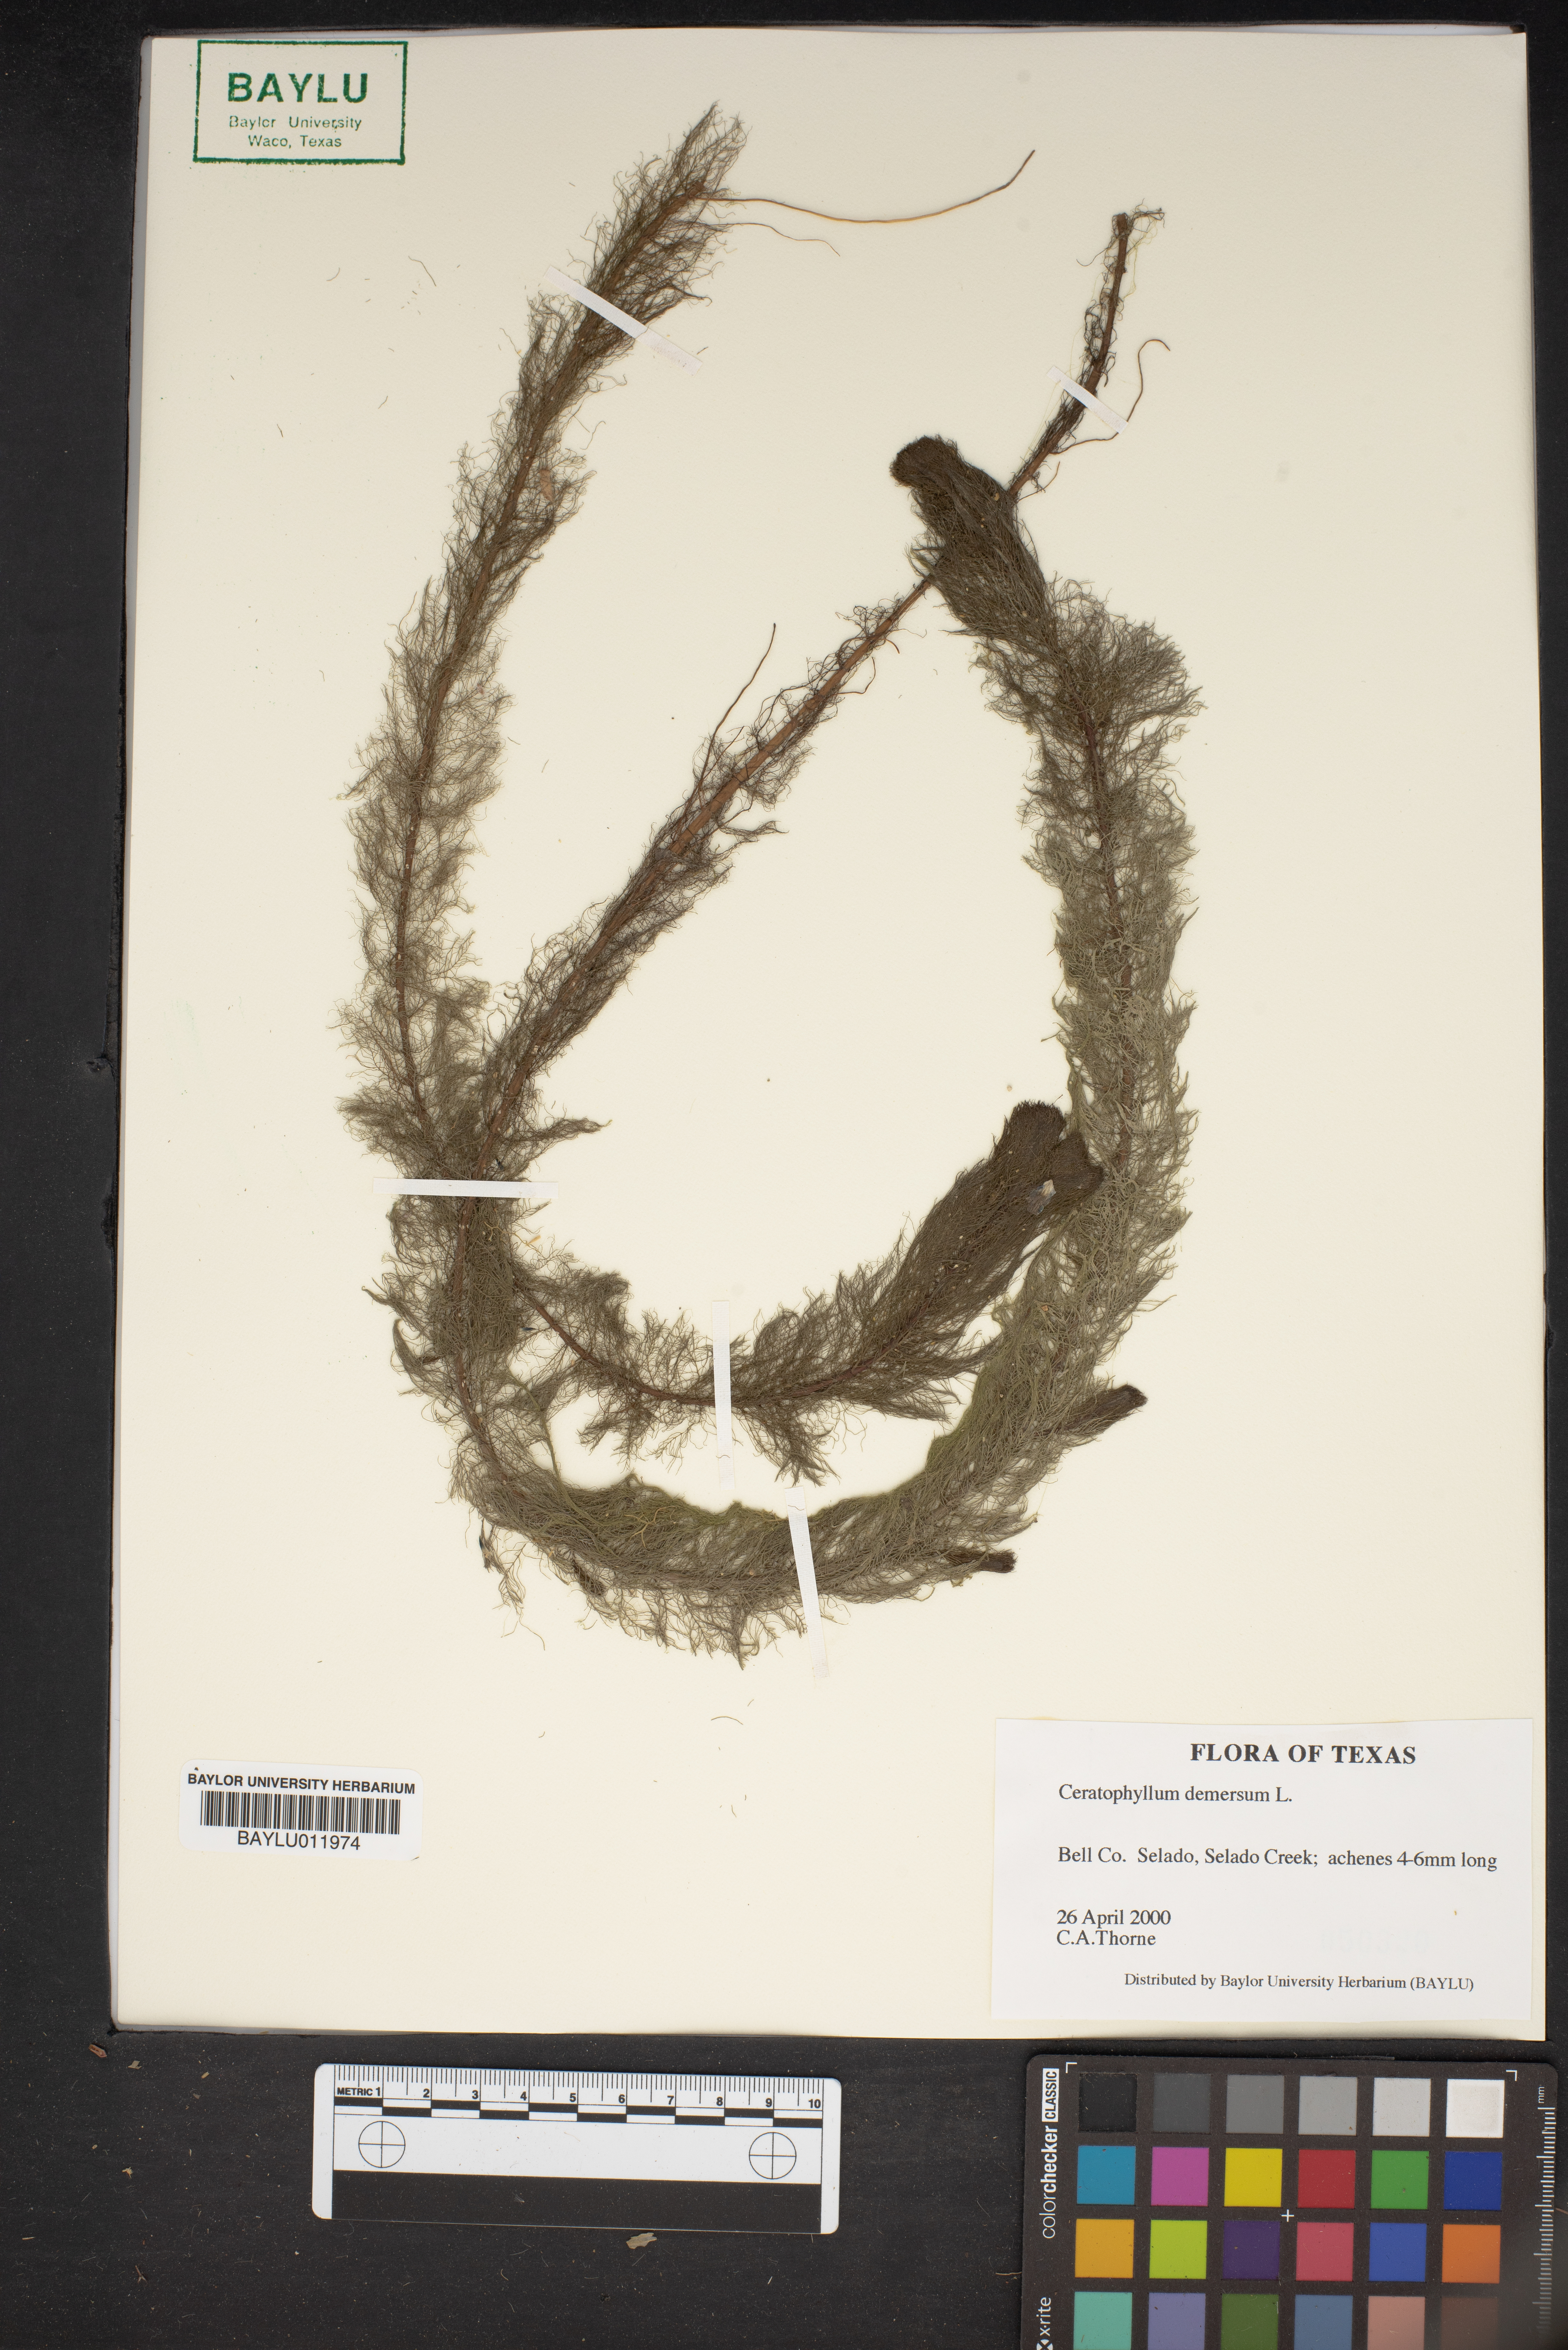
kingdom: Plantae
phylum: Tracheophyta
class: Magnoliopsida
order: Ceratophyllales
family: Ceratophyllaceae
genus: Ceratophyllum
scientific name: Ceratophyllum demersum
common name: Rigid hornwort
